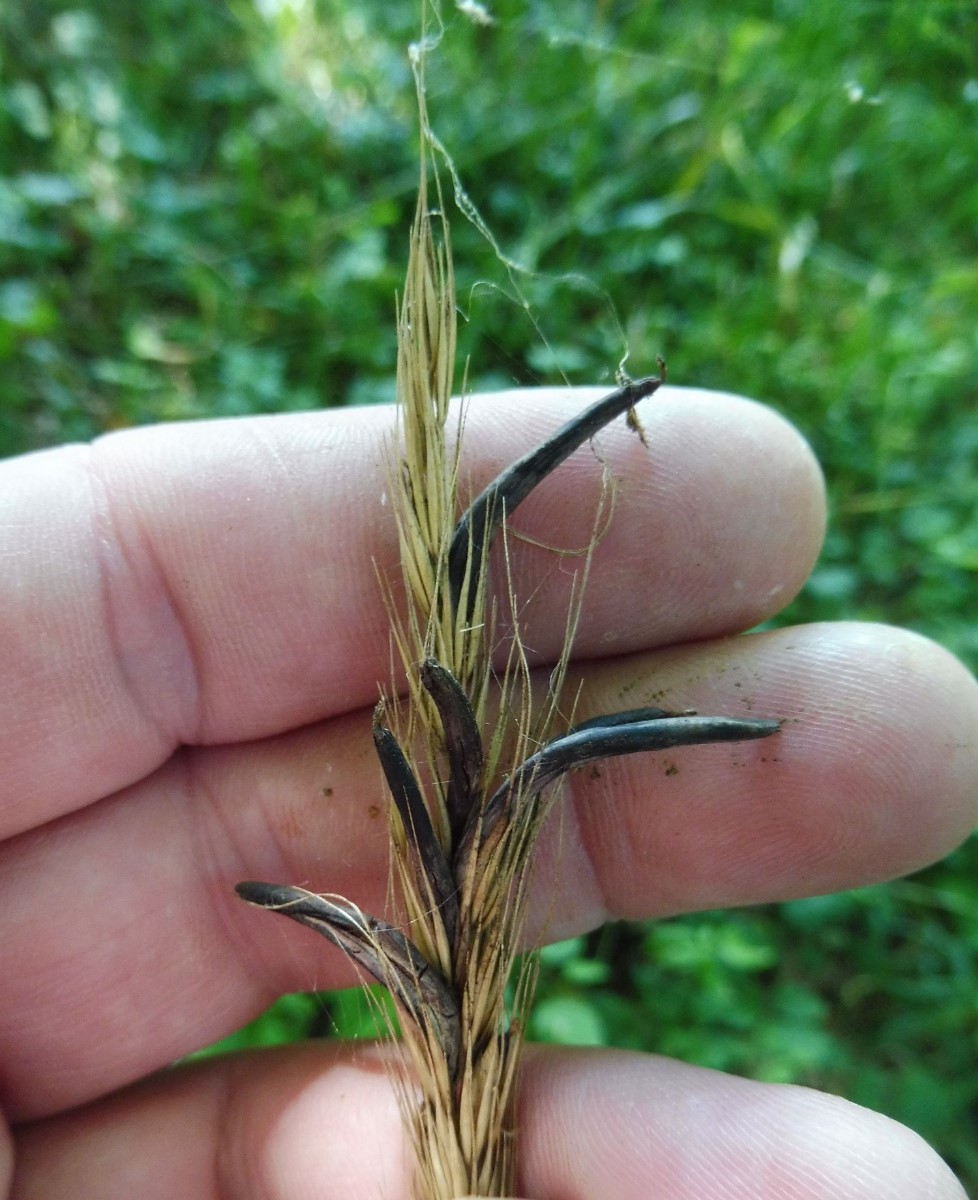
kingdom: Fungi
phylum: Ascomycota
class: Sordariomycetes
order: Hypocreales
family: Clavicipitaceae
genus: Claviceps
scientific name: Claviceps purpurea
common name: almindelig meldrøjer
